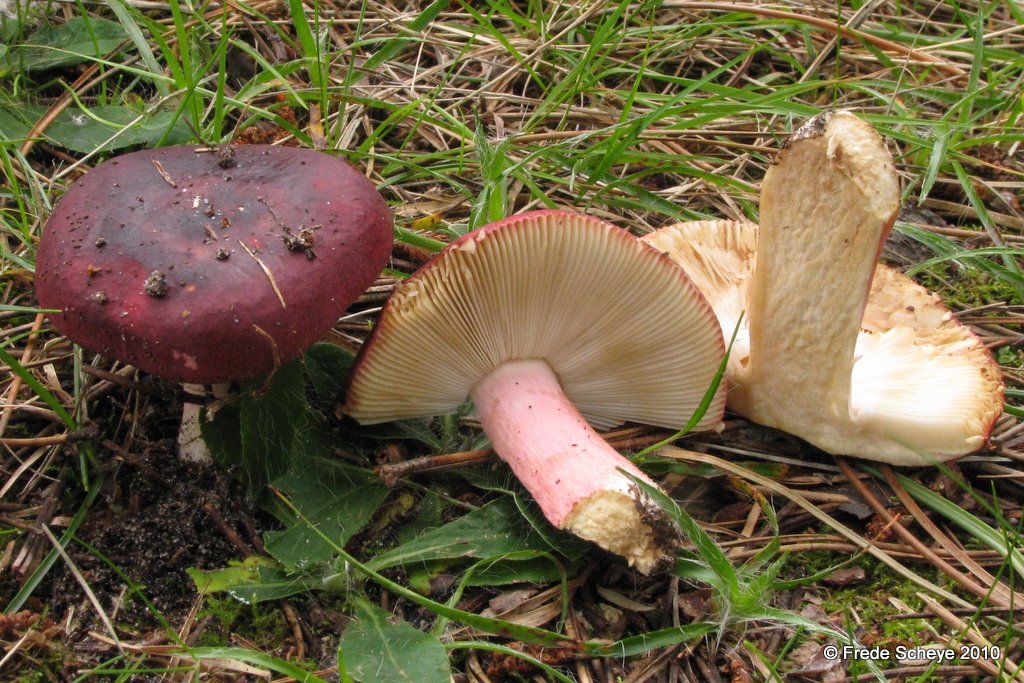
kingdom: Fungi
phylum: Basidiomycota
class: Agaricomycetes
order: Russulales
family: Russulaceae
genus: Russula
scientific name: Russula xerampelina
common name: hummer-skørhat
